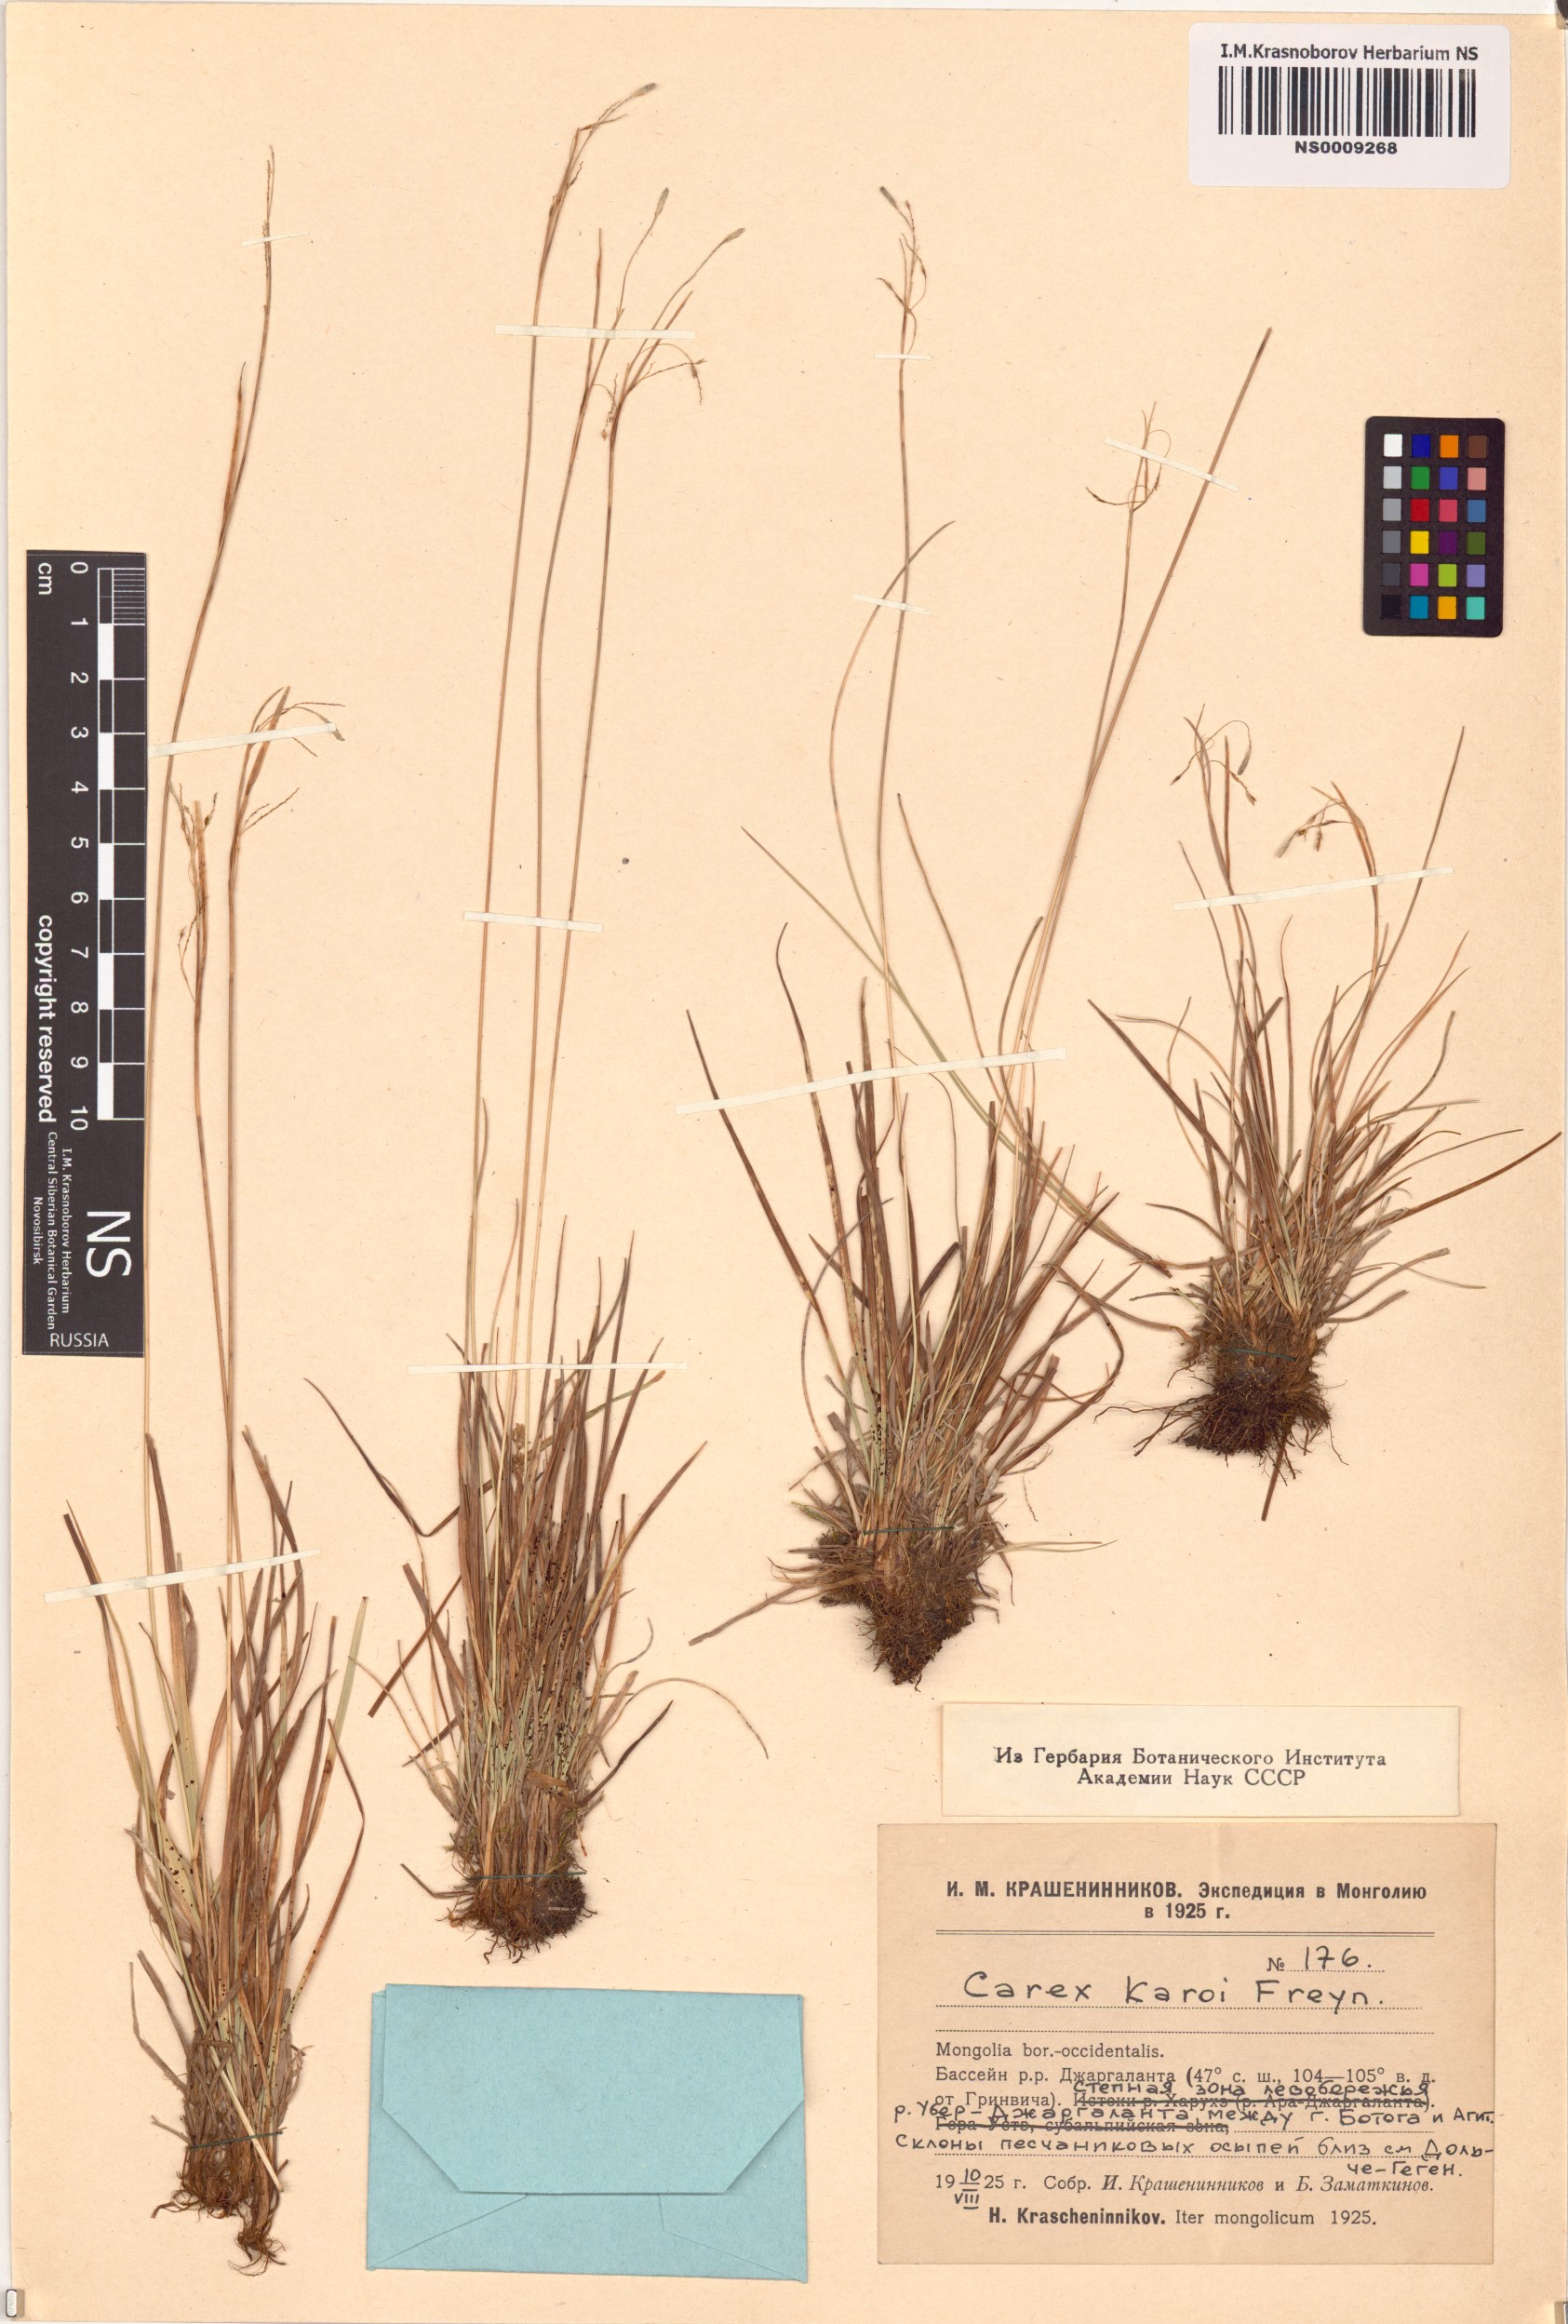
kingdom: Plantae
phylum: Tracheophyta
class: Liliopsida
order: Poales
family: Cyperaceae
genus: Carex
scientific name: Carex karoi
